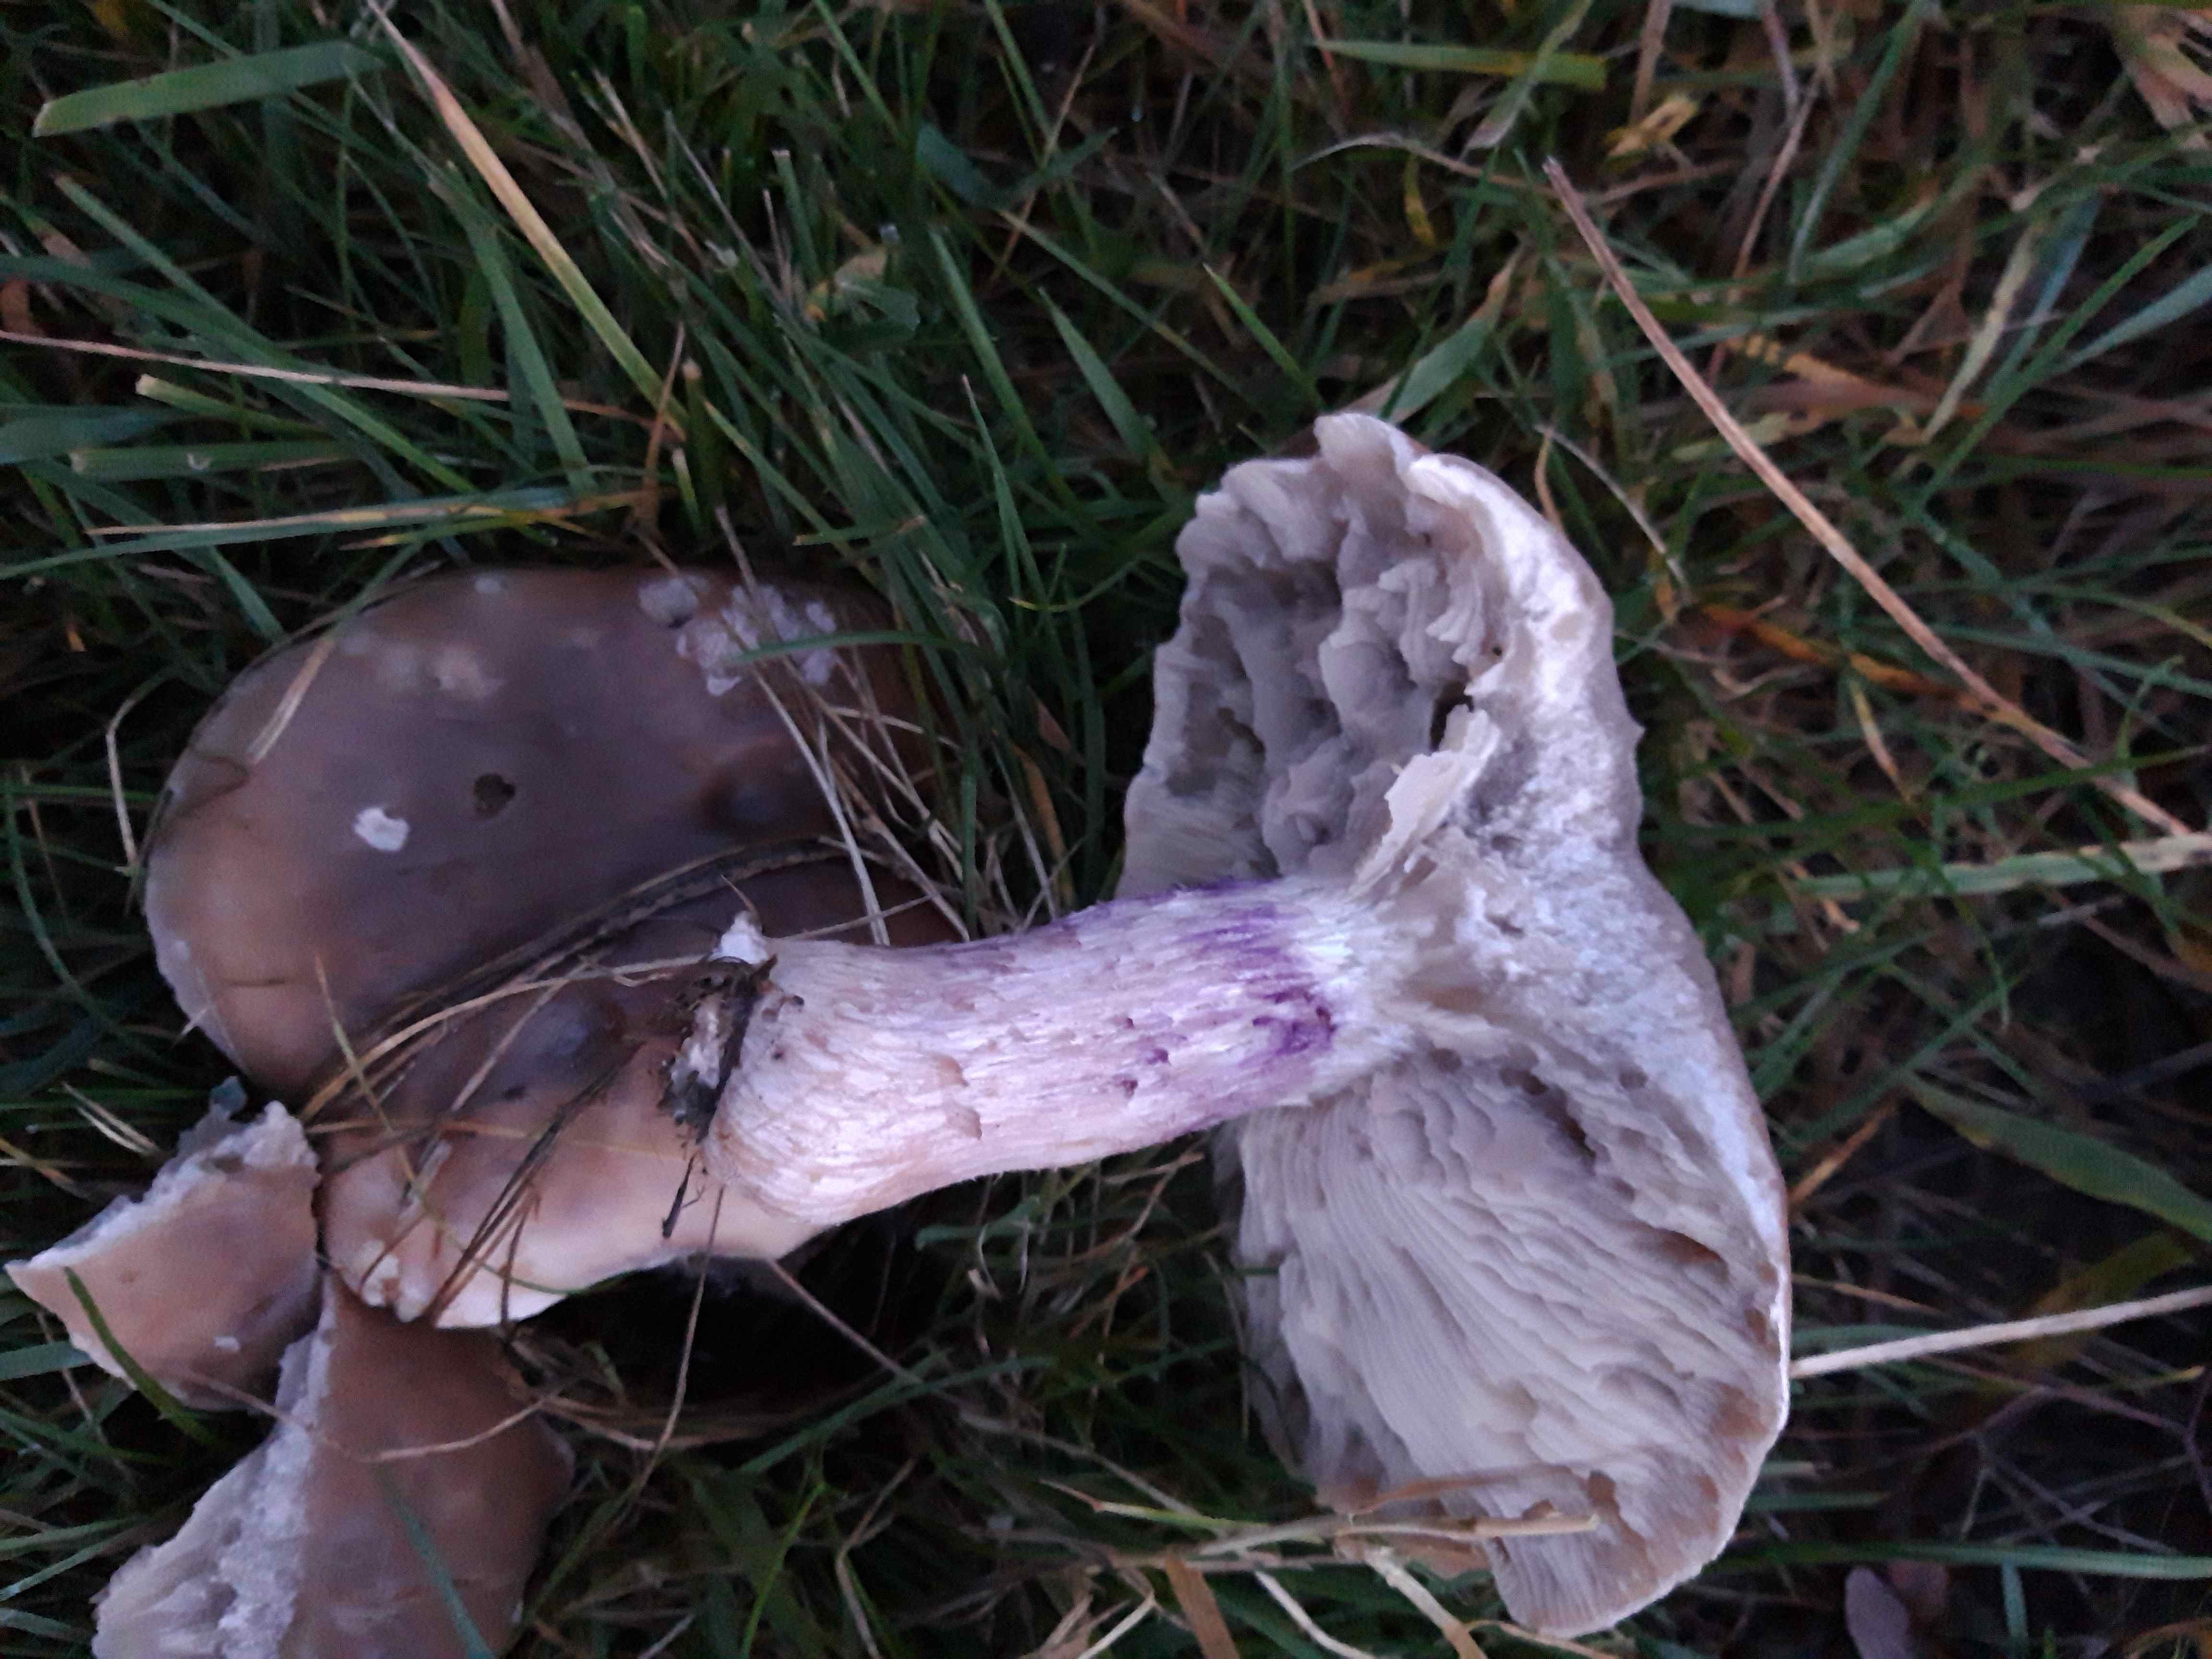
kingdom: Fungi
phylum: Basidiomycota
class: Agaricomycetes
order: Agaricales
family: Tricholomataceae
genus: Lepista
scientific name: Lepista personata
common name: bleg hekseringshat
